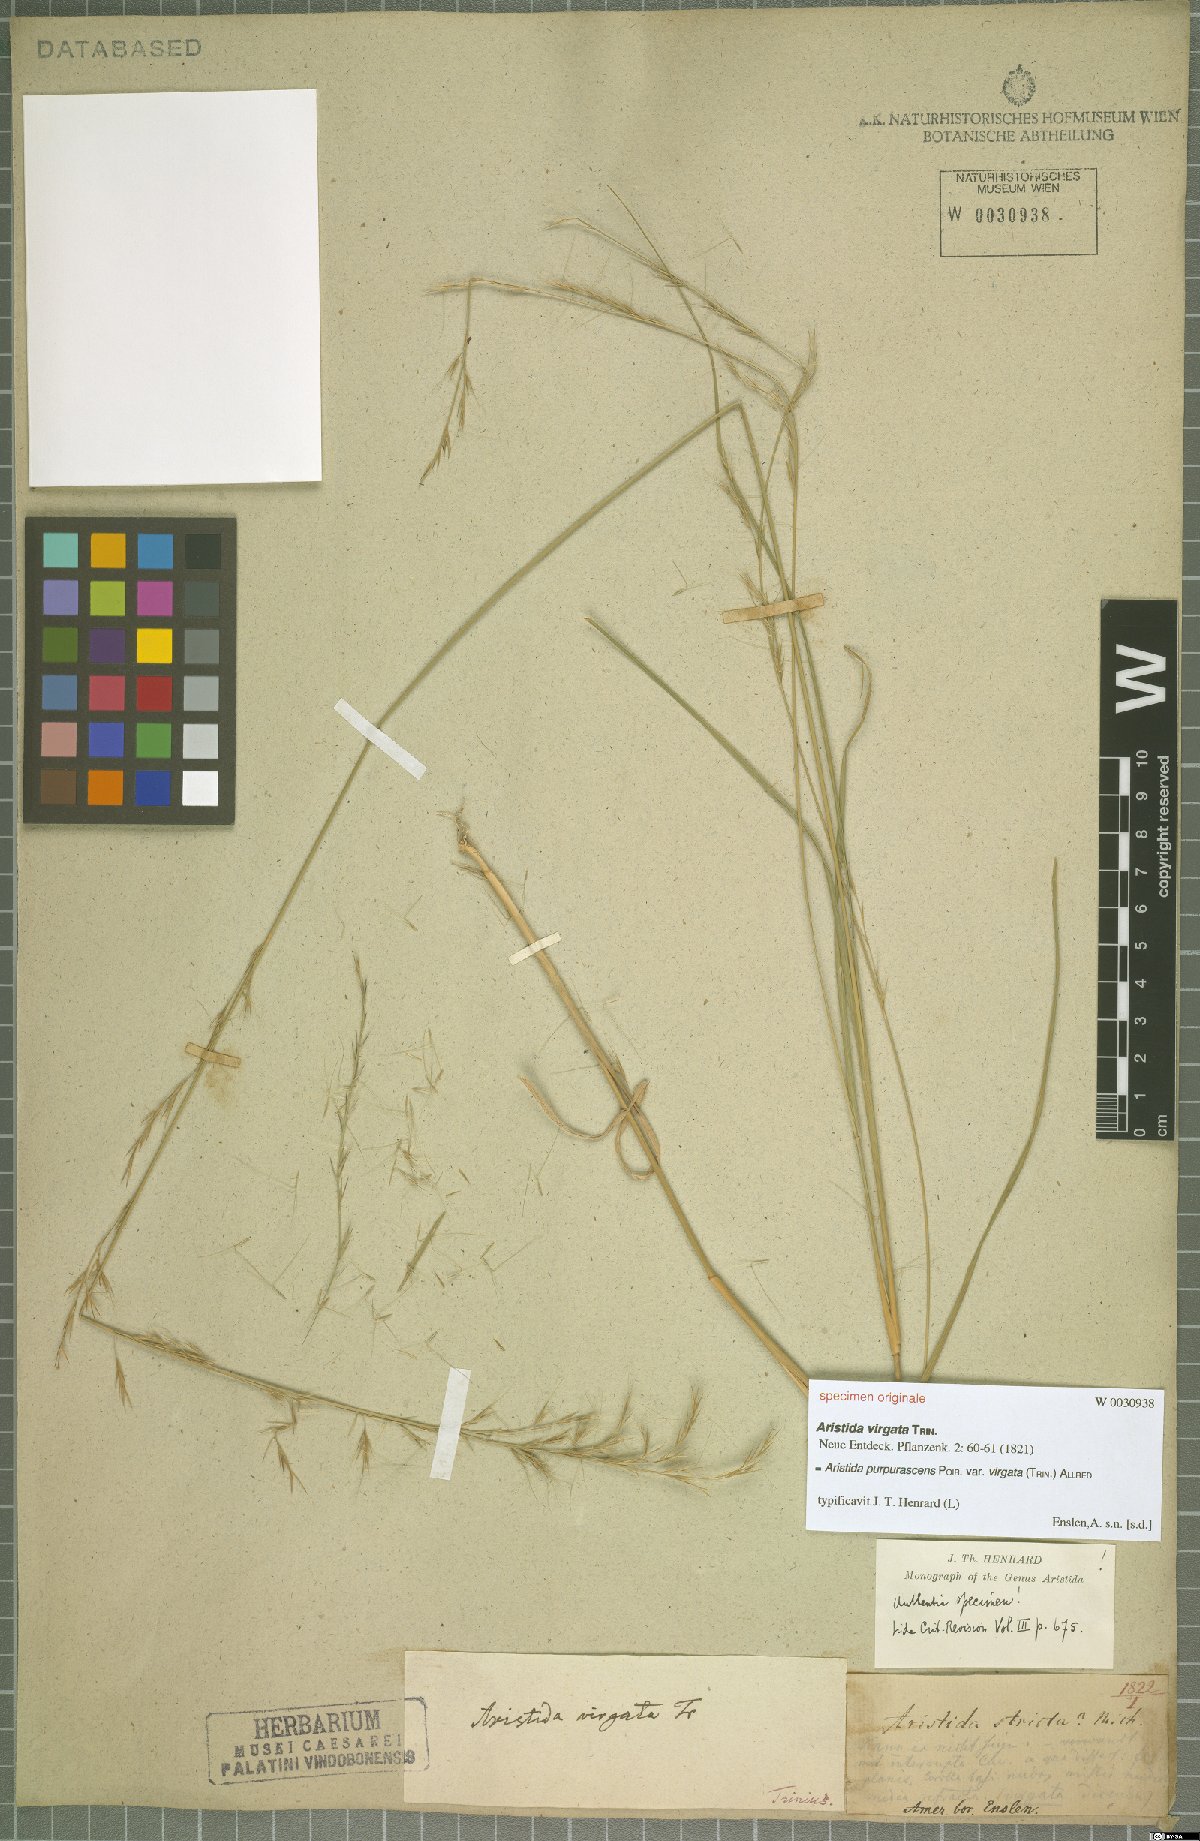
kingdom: Plantae
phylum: Tracheophyta
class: Liliopsida
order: Poales
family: Poaceae
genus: Aristida
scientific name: Aristida virgata
